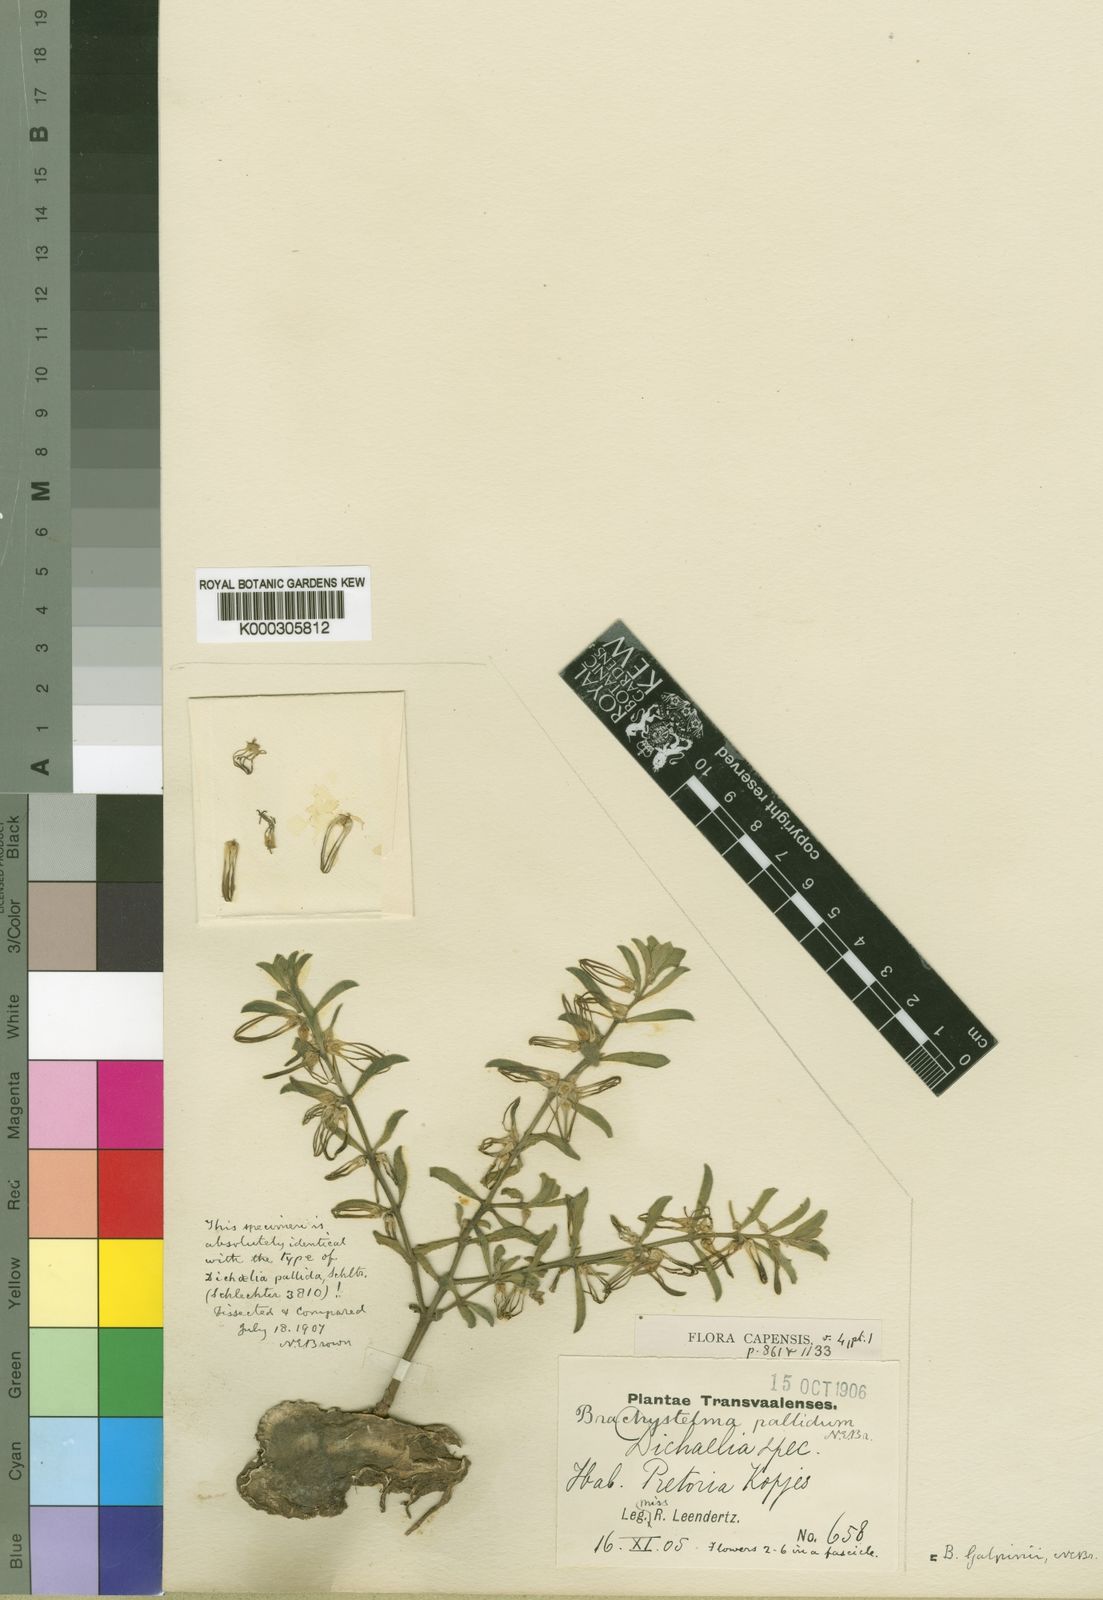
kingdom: Plantae
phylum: Tracheophyta
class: Magnoliopsida
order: Gentianales
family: Apocynaceae
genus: Ceropegia
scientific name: Ceropegia circinata
